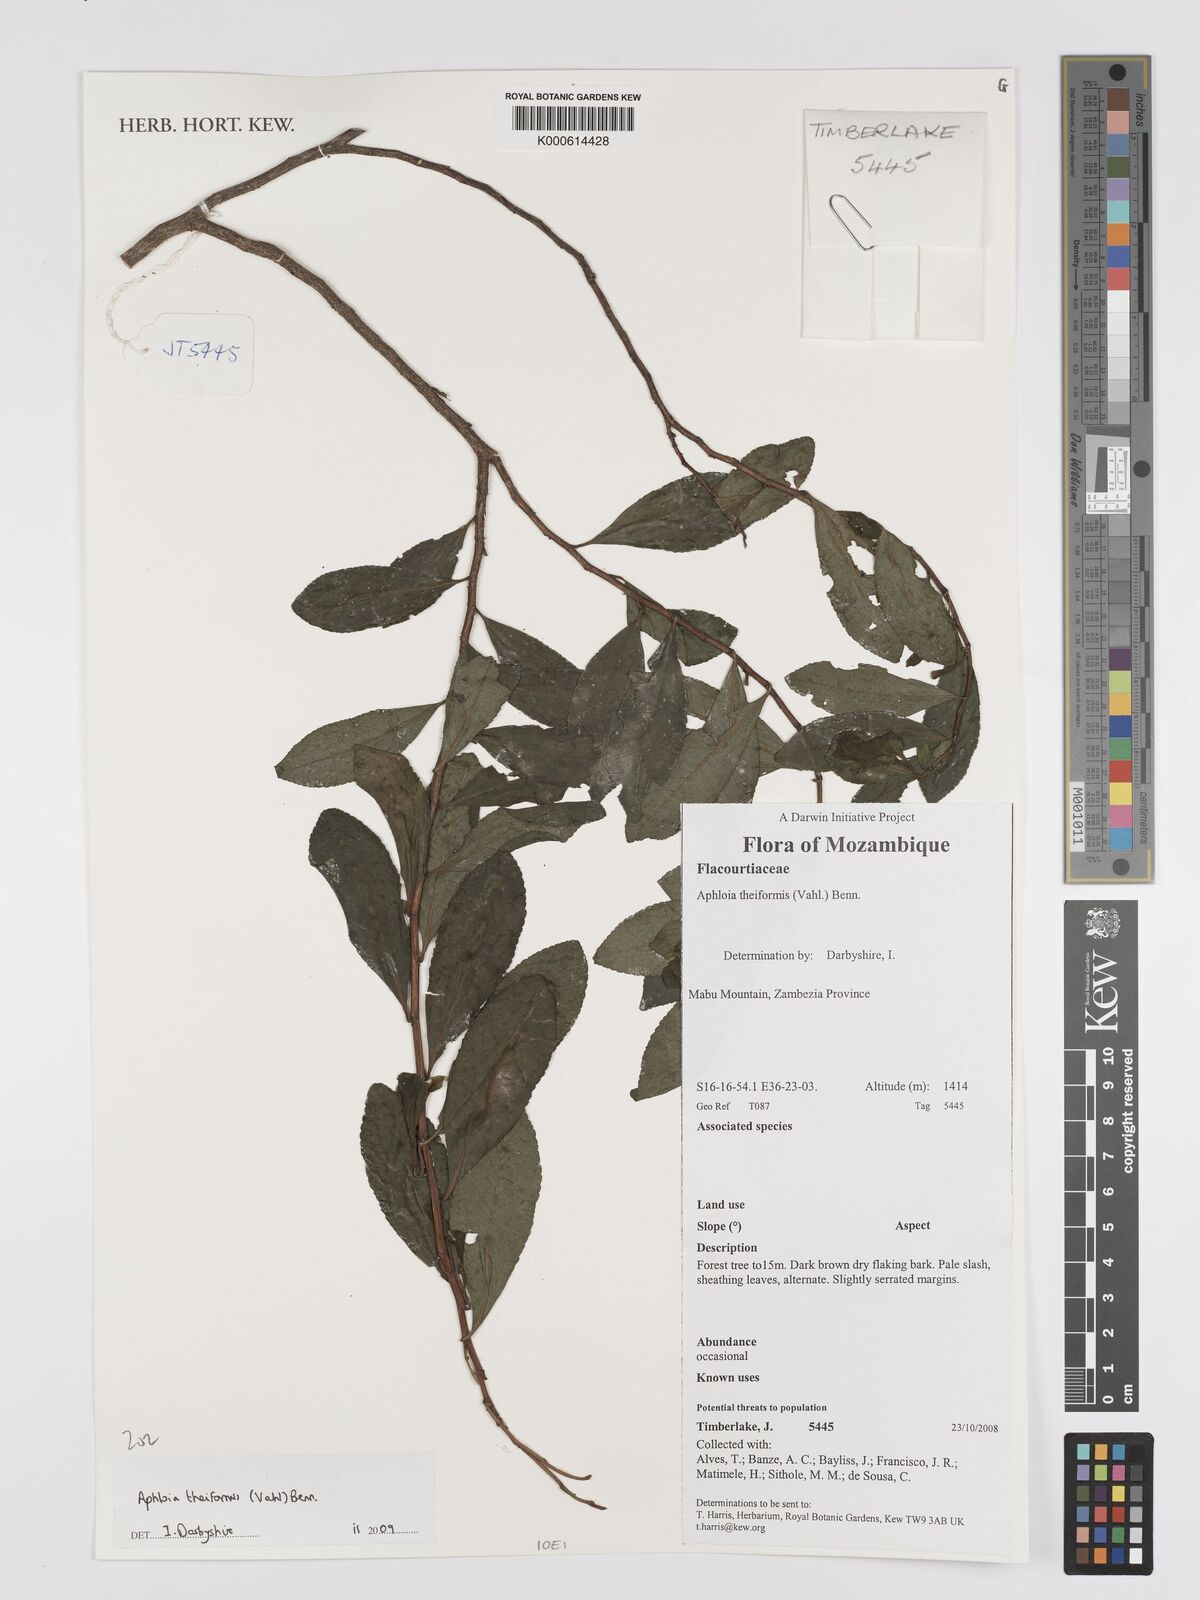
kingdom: Plantae
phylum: Tracheophyta
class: Magnoliopsida
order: Crossosomatales
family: Aphloiaceae
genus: Aphloia
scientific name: Aphloia theiformis
